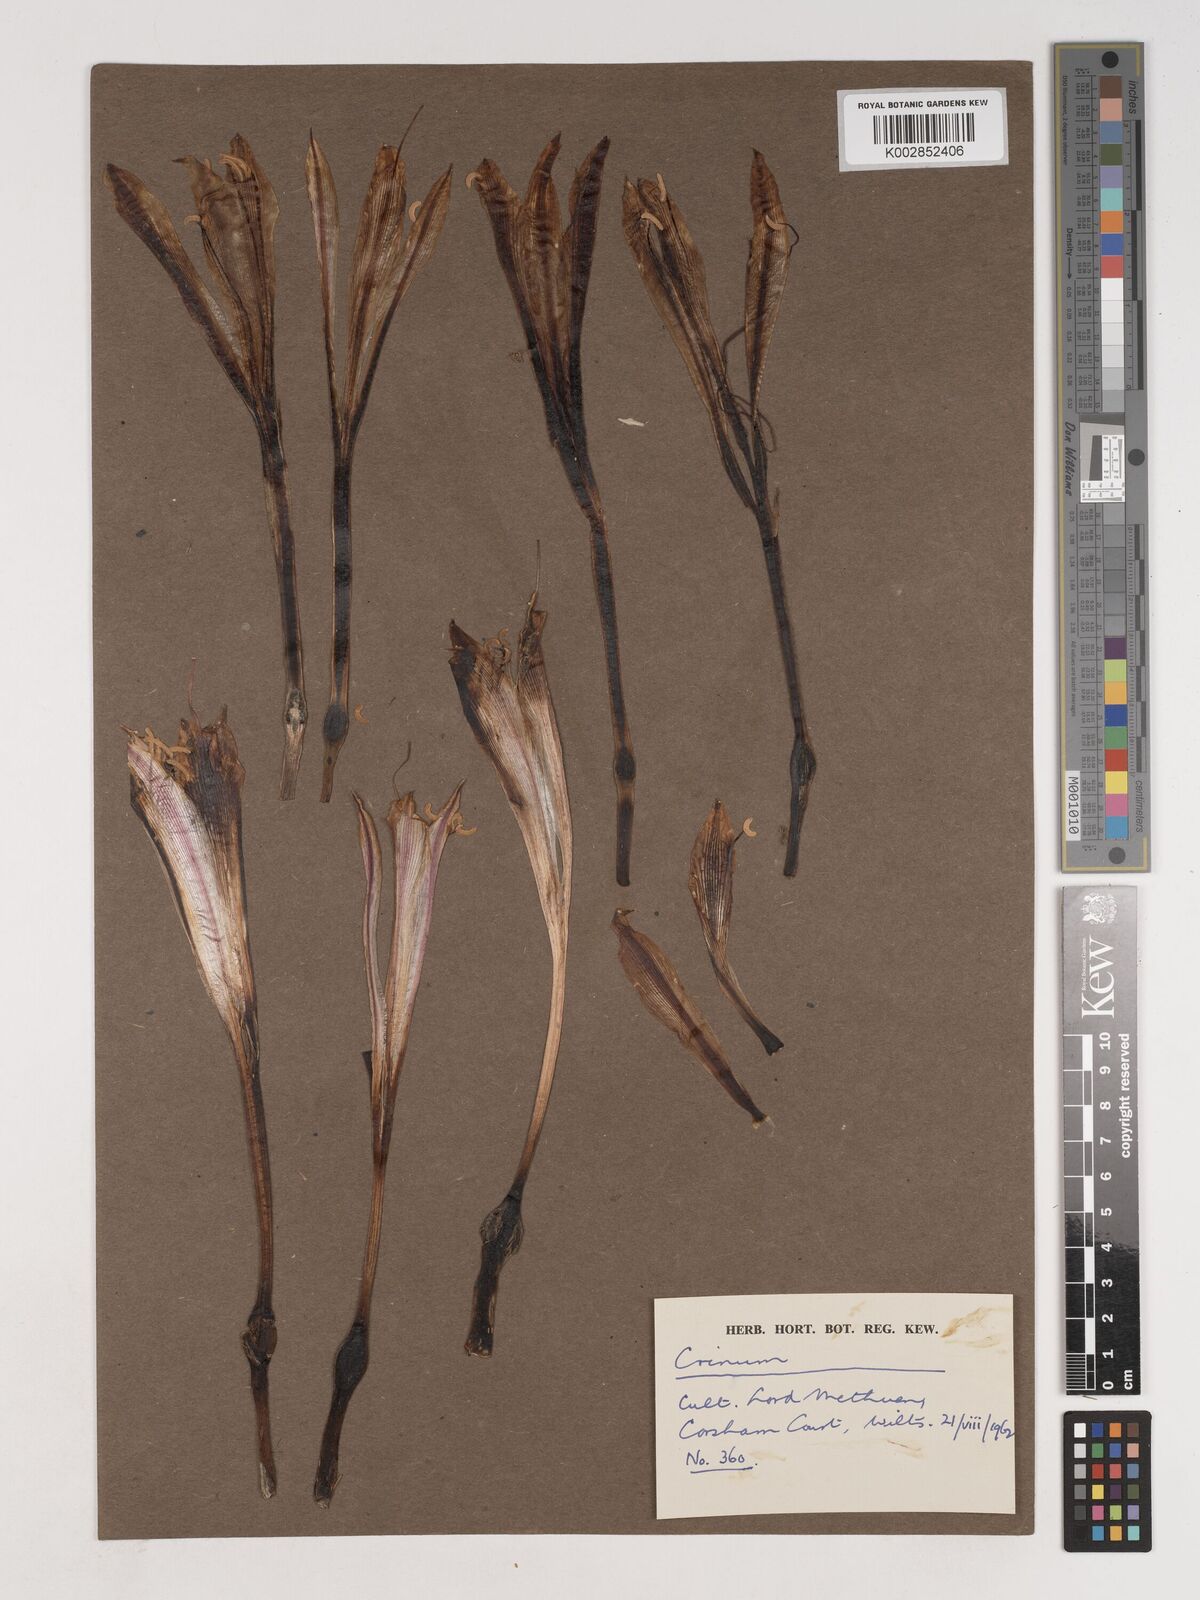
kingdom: Plantae
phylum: Tracheophyta
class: Liliopsida
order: Asparagales
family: Amaryllidaceae
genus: Crinum
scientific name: Crinum stuhlmannii
